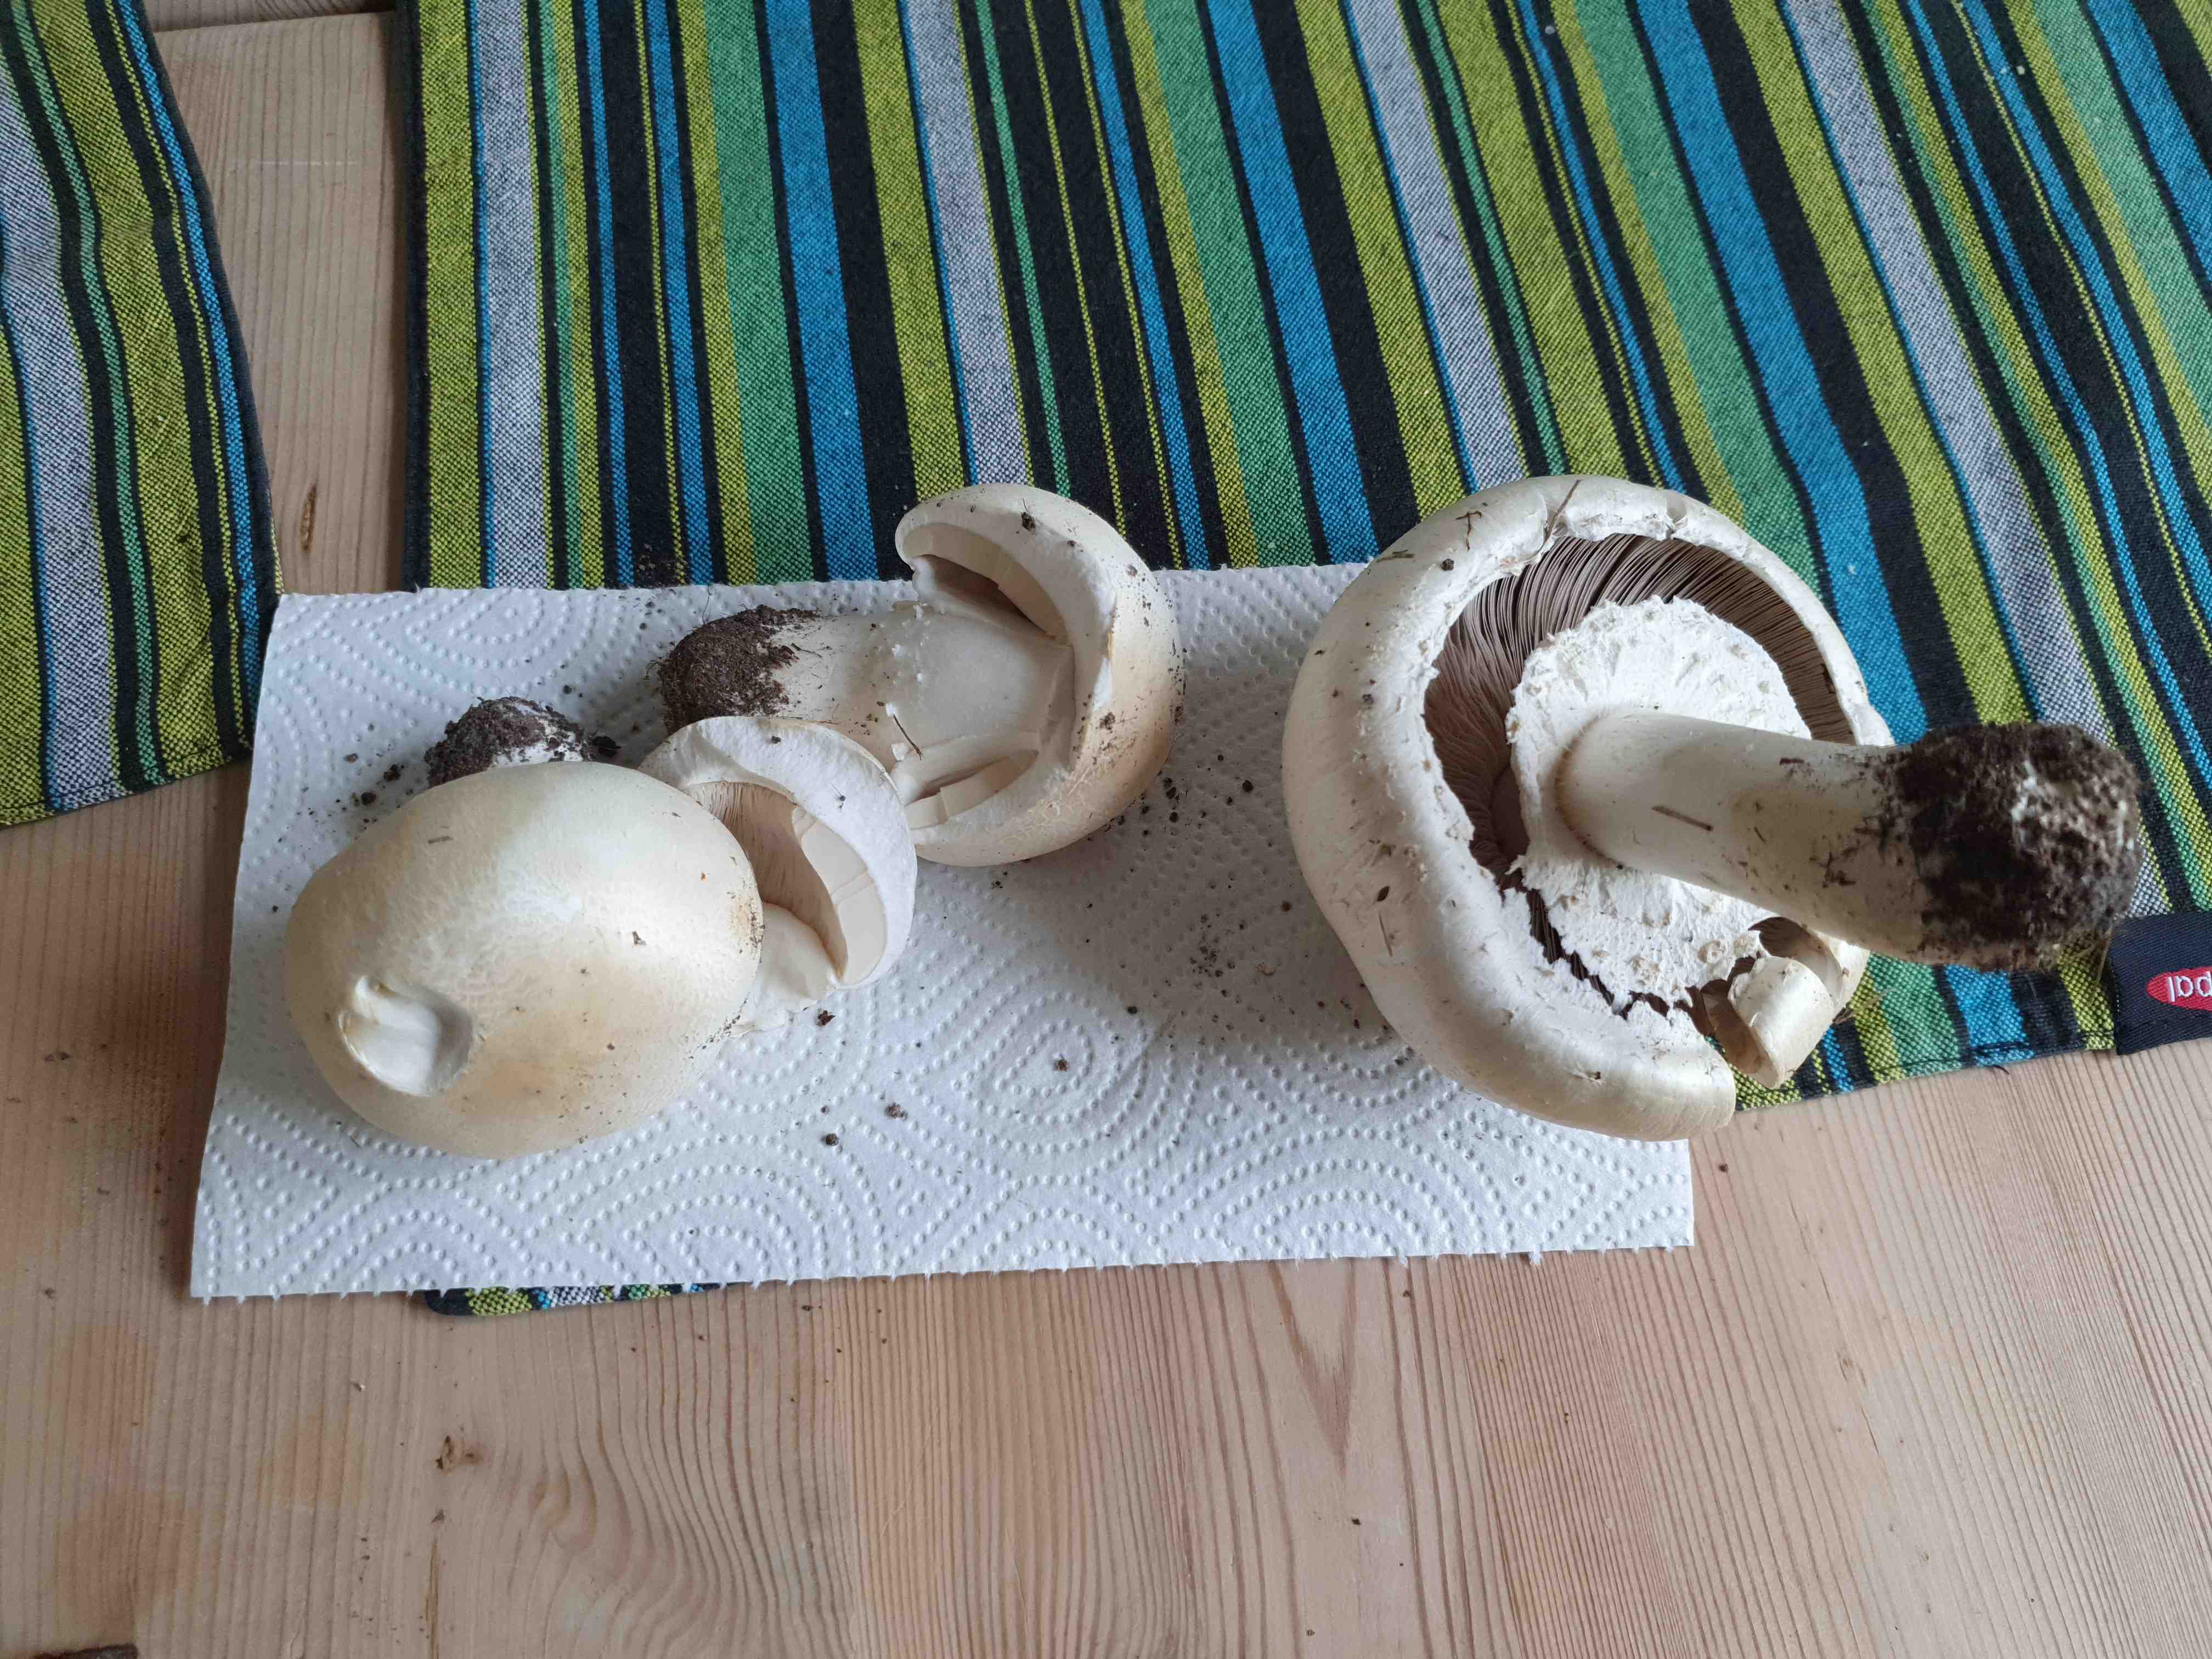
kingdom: Fungi
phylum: Basidiomycota
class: Agaricomycetes
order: Agaricales
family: Agaricaceae
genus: Agaricus
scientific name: Agaricus
